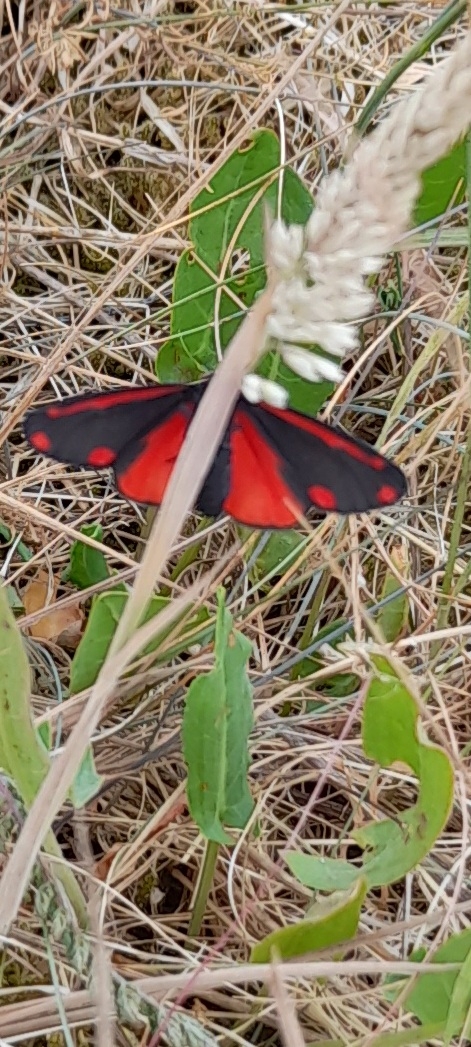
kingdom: Animalia
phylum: Arthropoda
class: Insecta
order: Lepidoptera
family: Erebidae
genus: Tyria
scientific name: Tyria jacobaeae
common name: Blodplet
